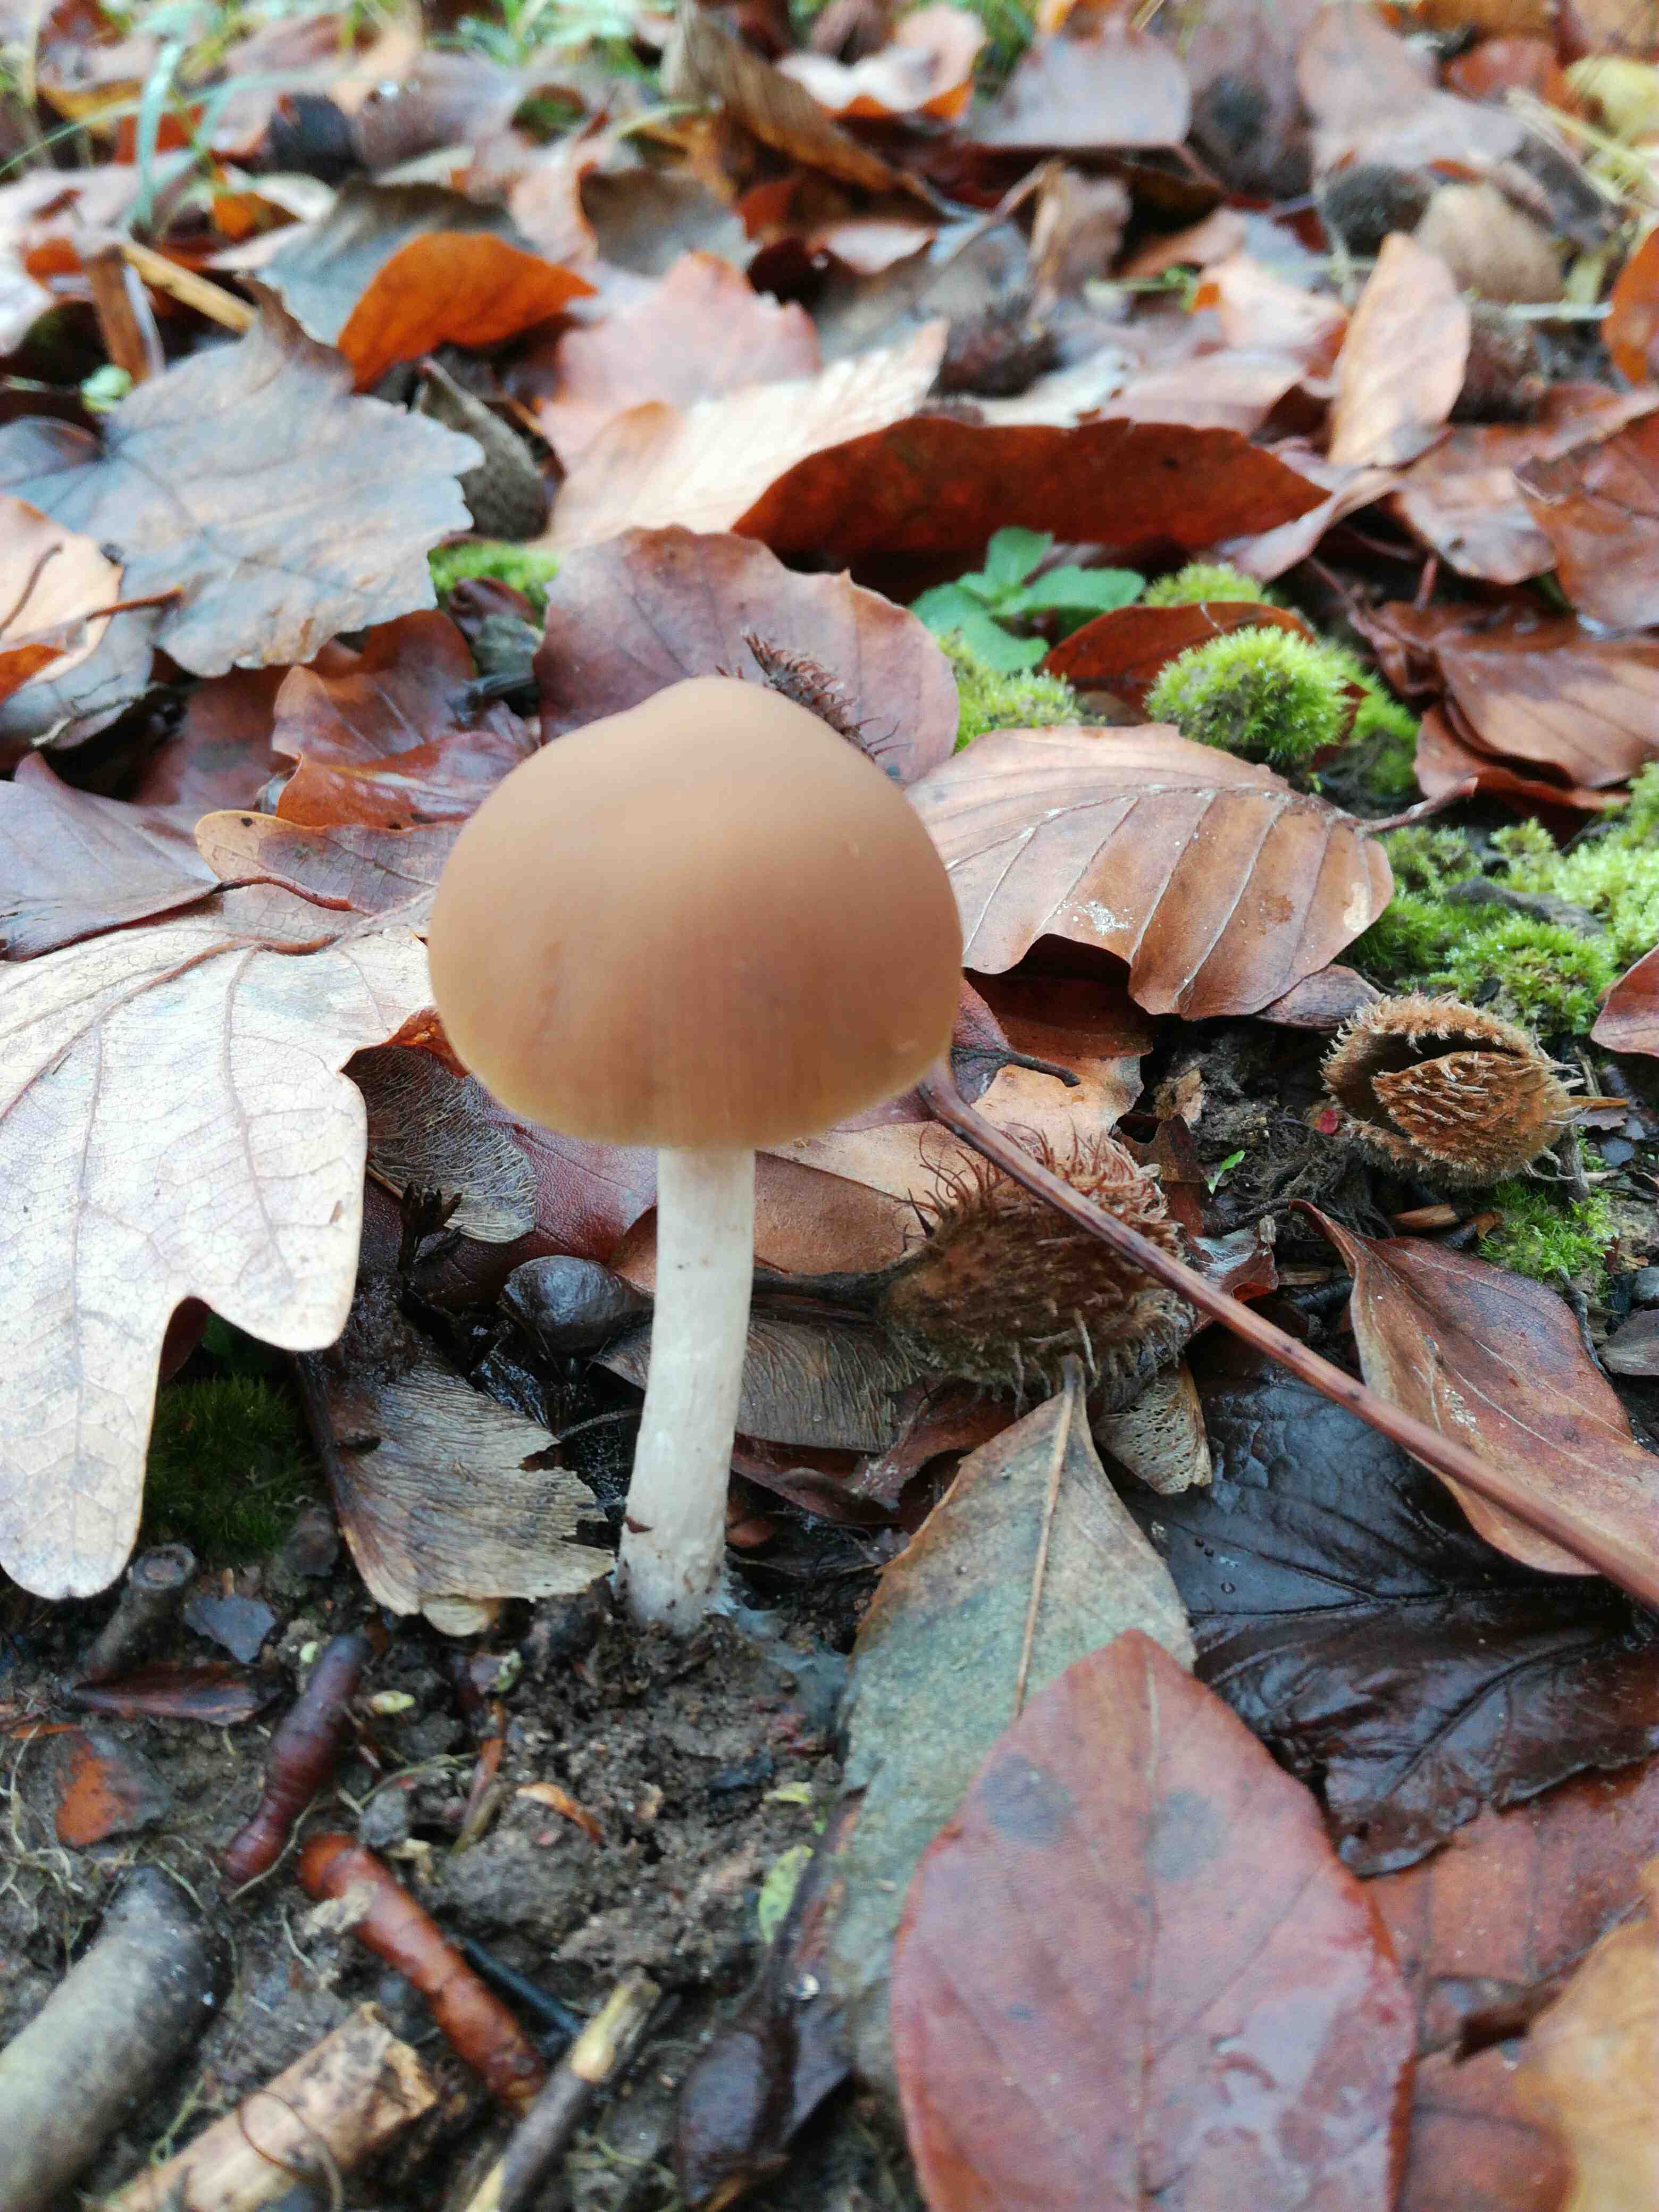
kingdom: Fungi
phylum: Basidiomycota
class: Agaricomycetes
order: Agaricales
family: Psathyrellaceae
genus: Psathyrella
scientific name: Psathyrella
